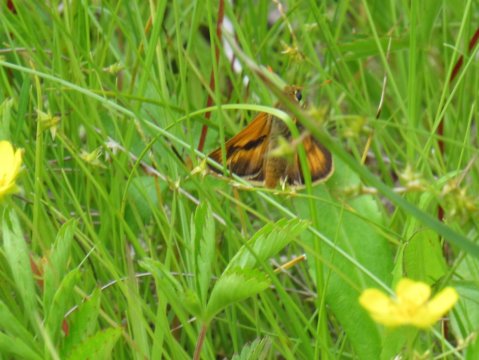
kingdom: Animalia
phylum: Arthropoda
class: Insecta
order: Lepidoptera
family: Hesperiidae
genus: Polites
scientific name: Polites
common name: Long Dash Skipper
